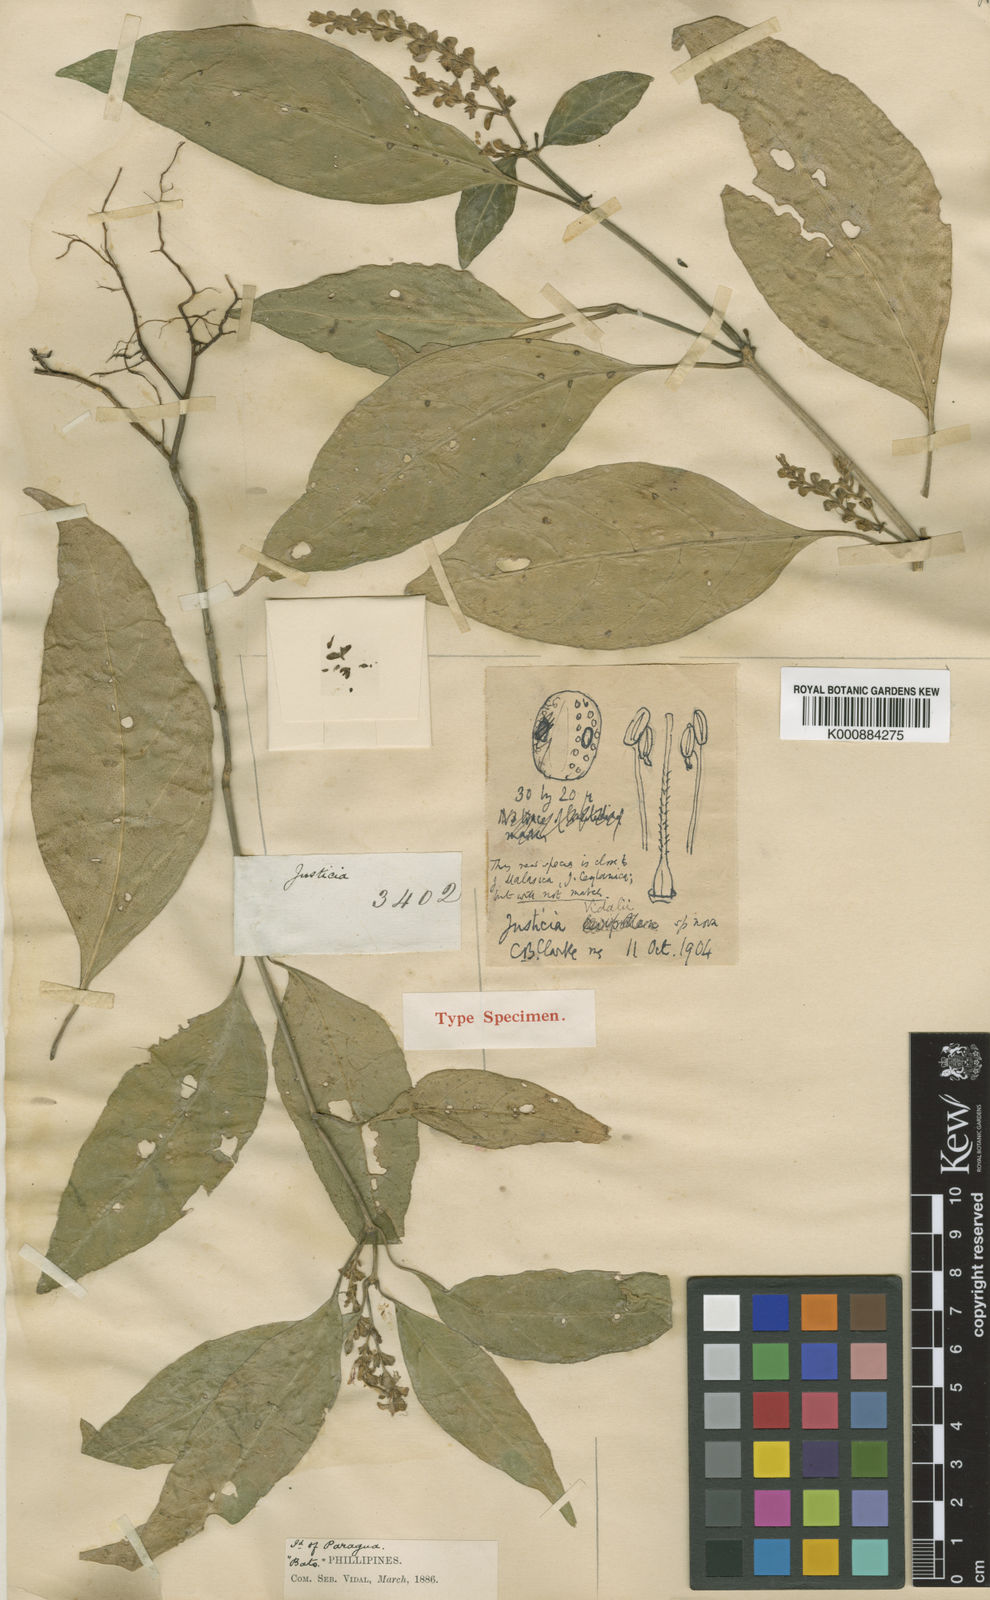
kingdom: Plantae
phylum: Tracheophyta
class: Magnoliopsida
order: Lamiales
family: Acanthaceae
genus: Justicia
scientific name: Justicia vidalii
